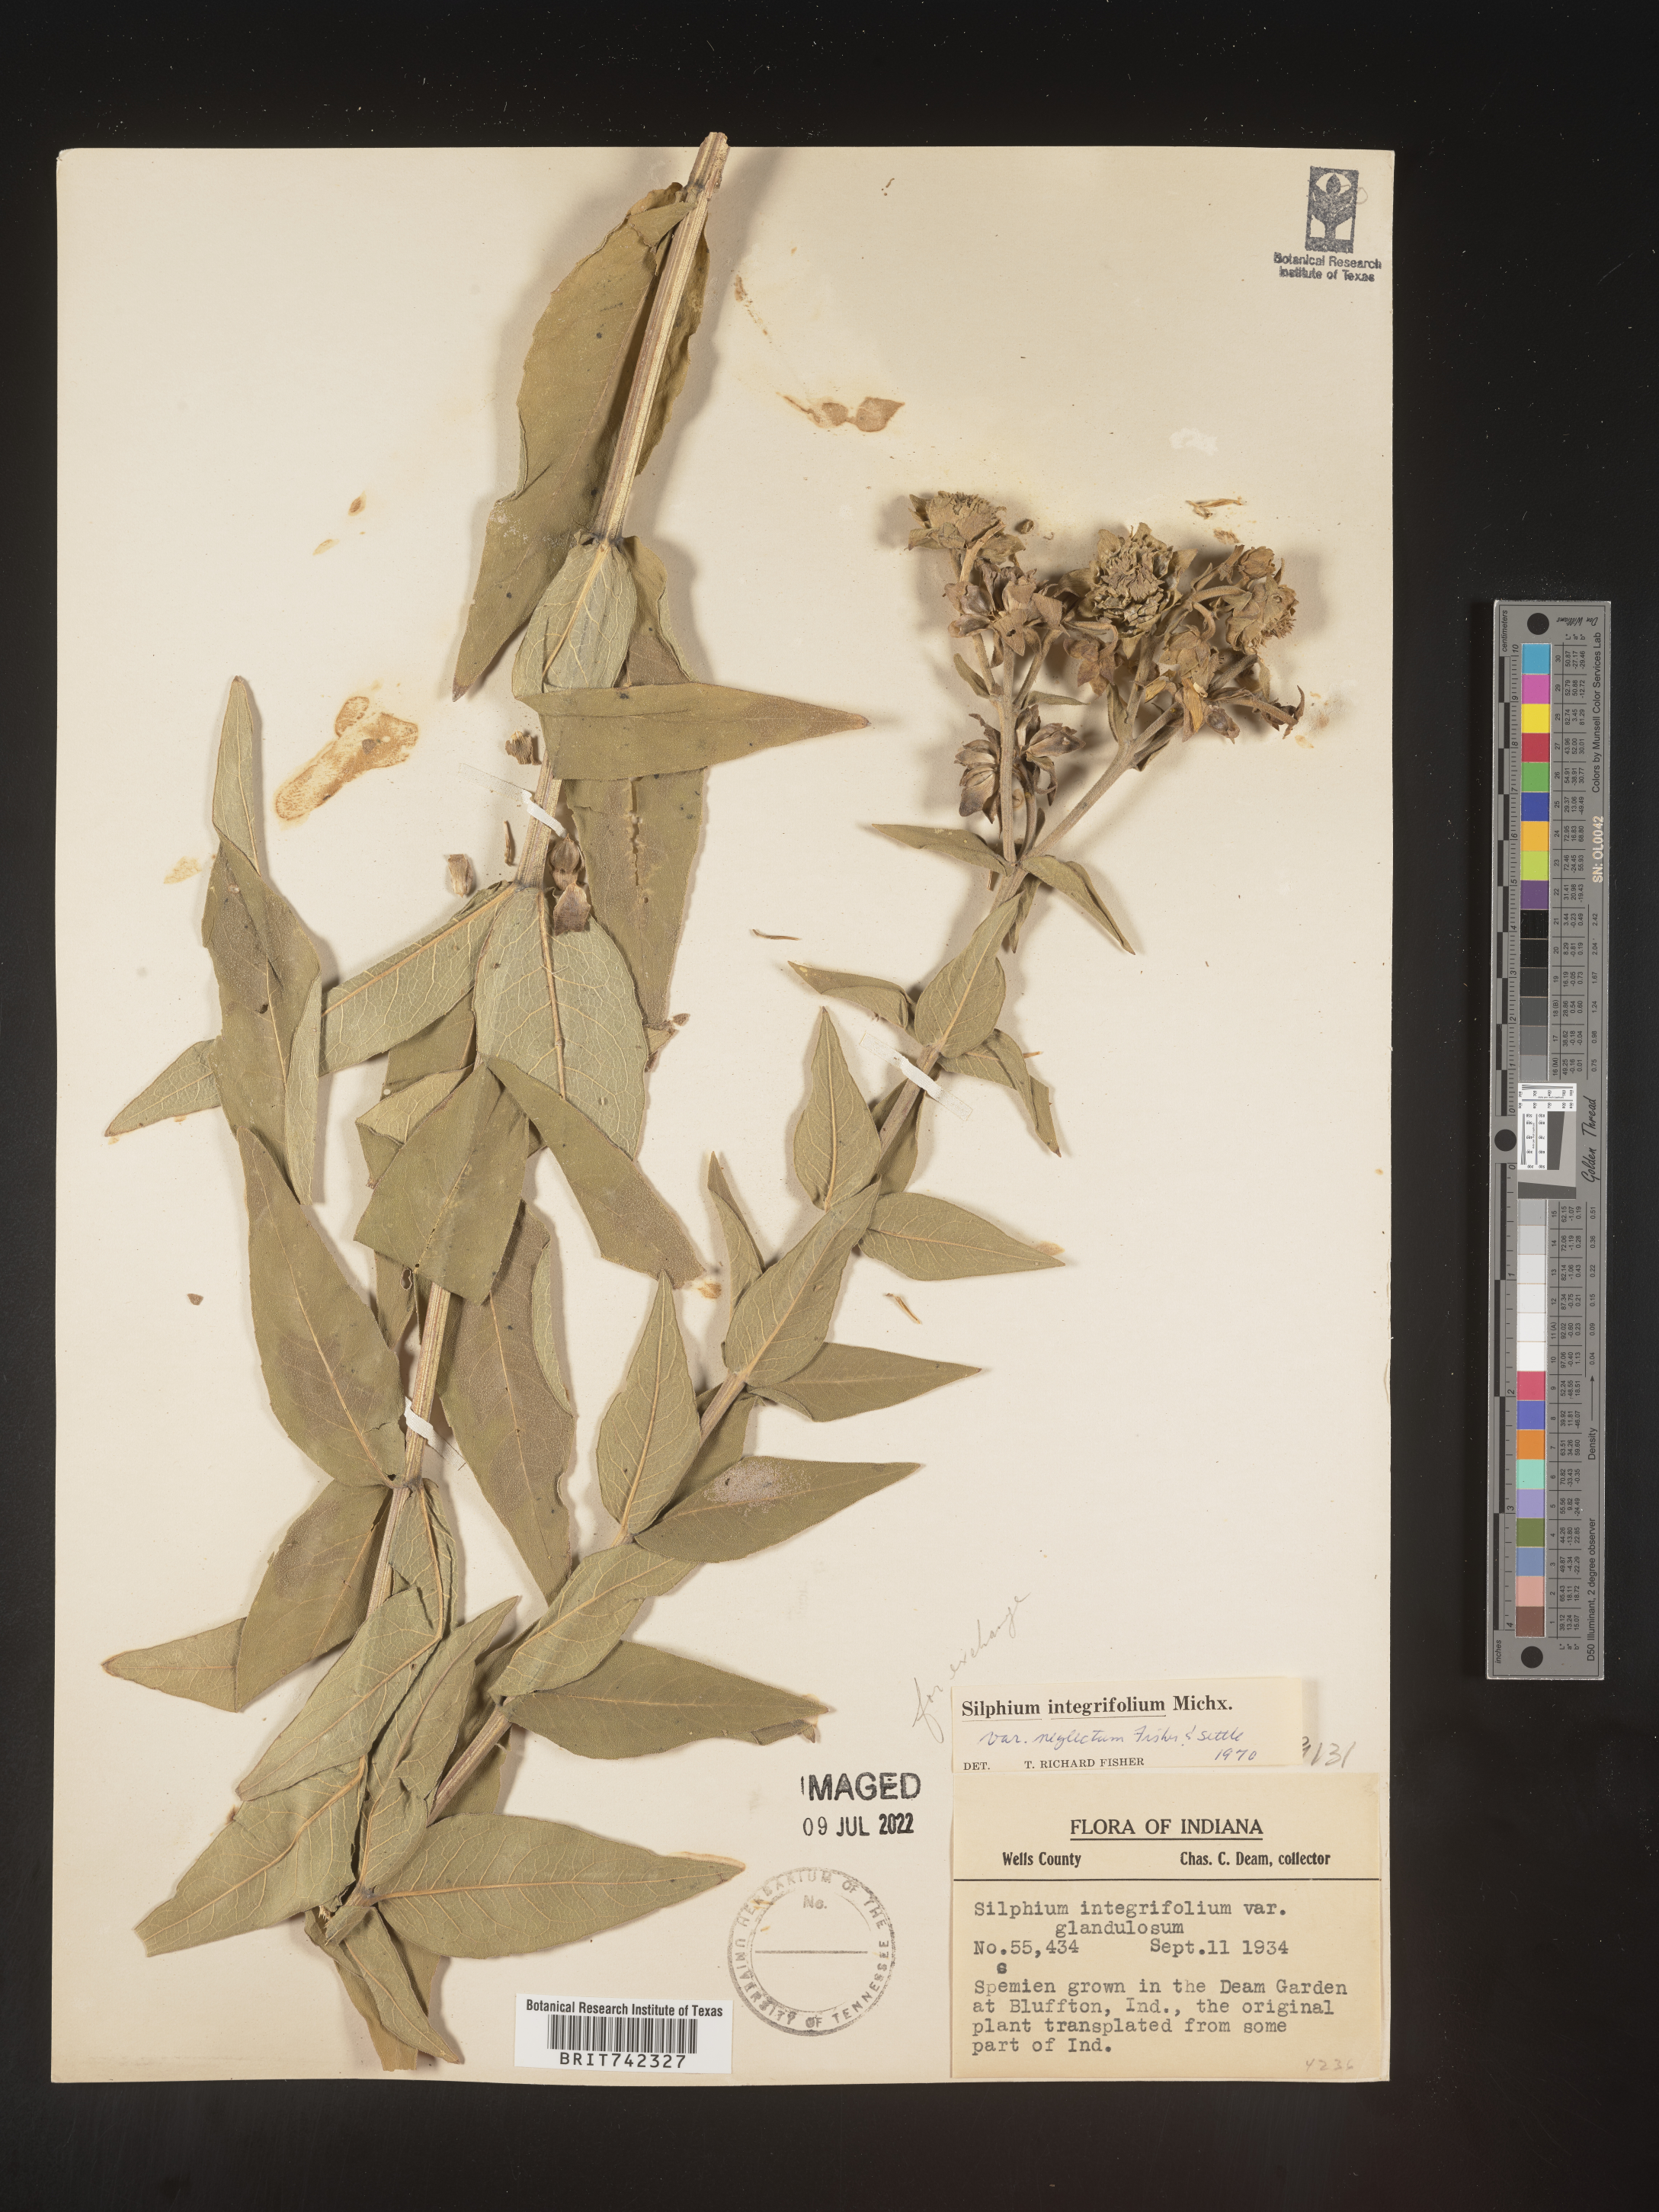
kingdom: Plantae
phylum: Tracheophyta
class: Magnoliopsida
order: Asterales
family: Asteraceae
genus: Silphium
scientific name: Silphium integrifolium
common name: Whole-leaf rosinweed
